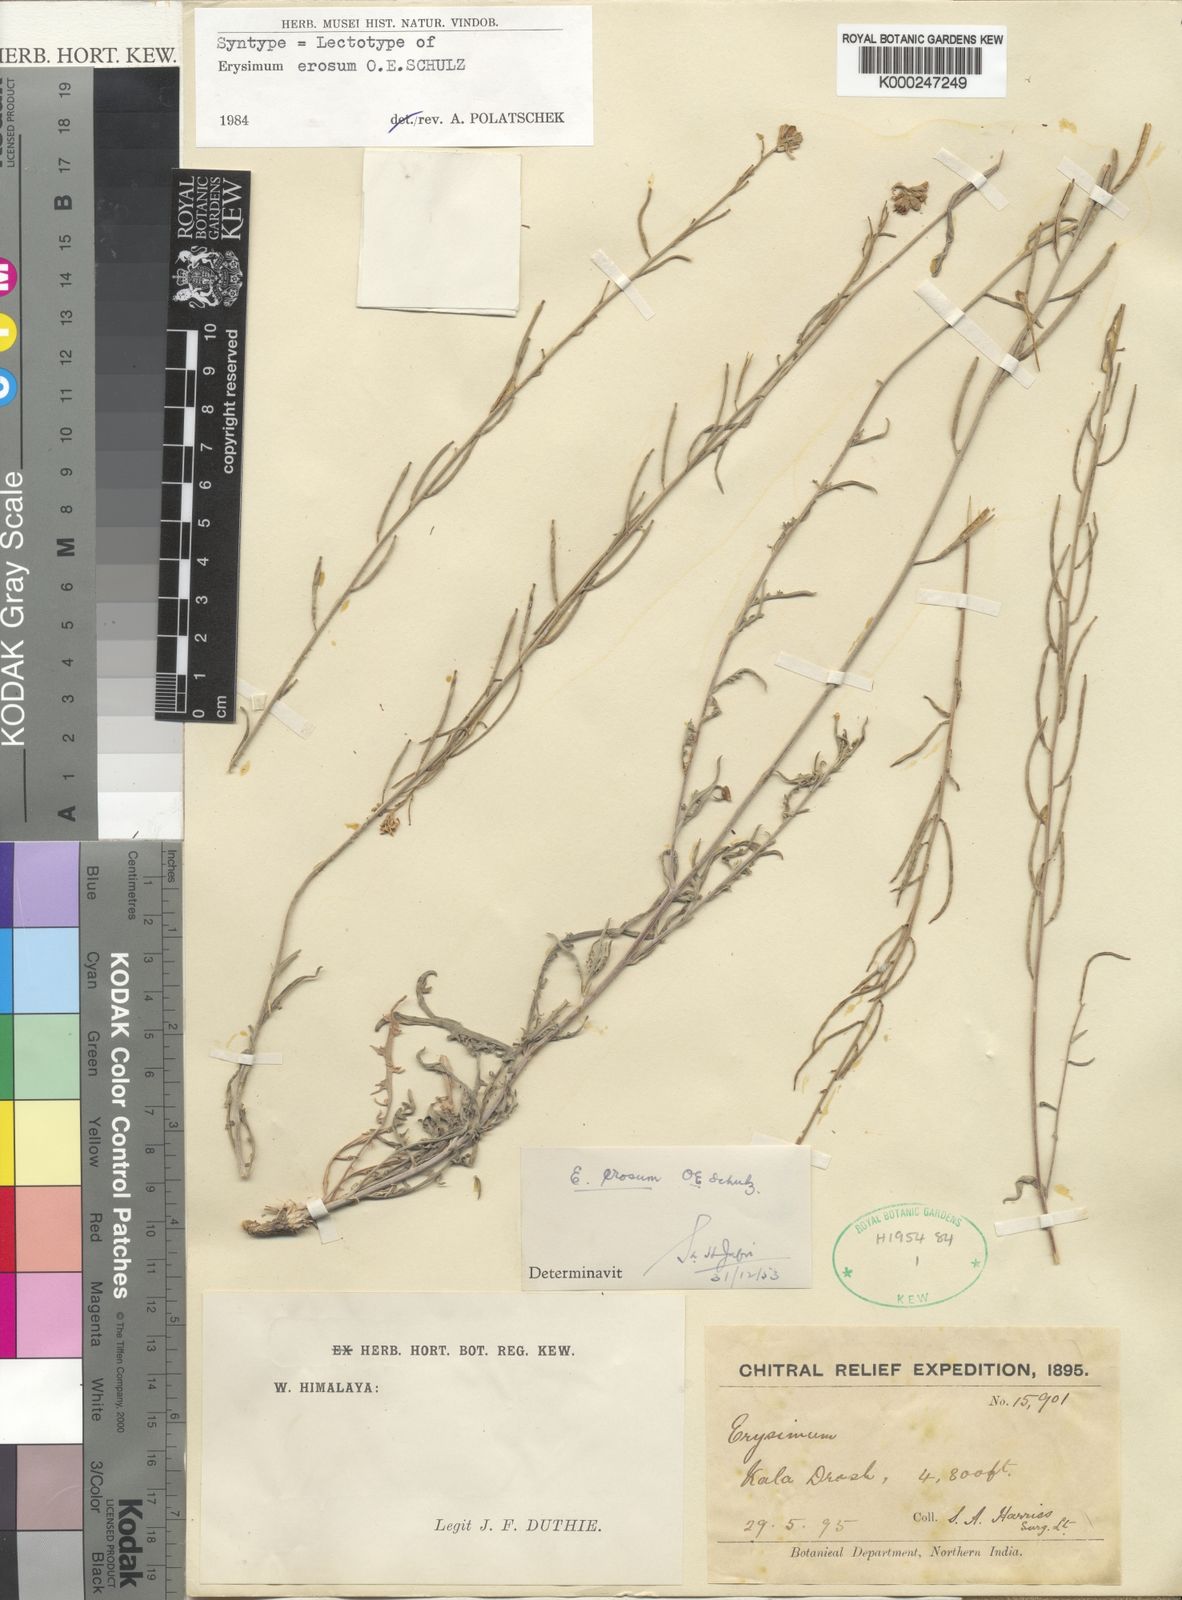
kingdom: Plantae
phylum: Tracheophyta
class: Magnoliopsida
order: Brassicales
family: Brassicaceae
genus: Erysimum
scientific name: Erysimum erosum
